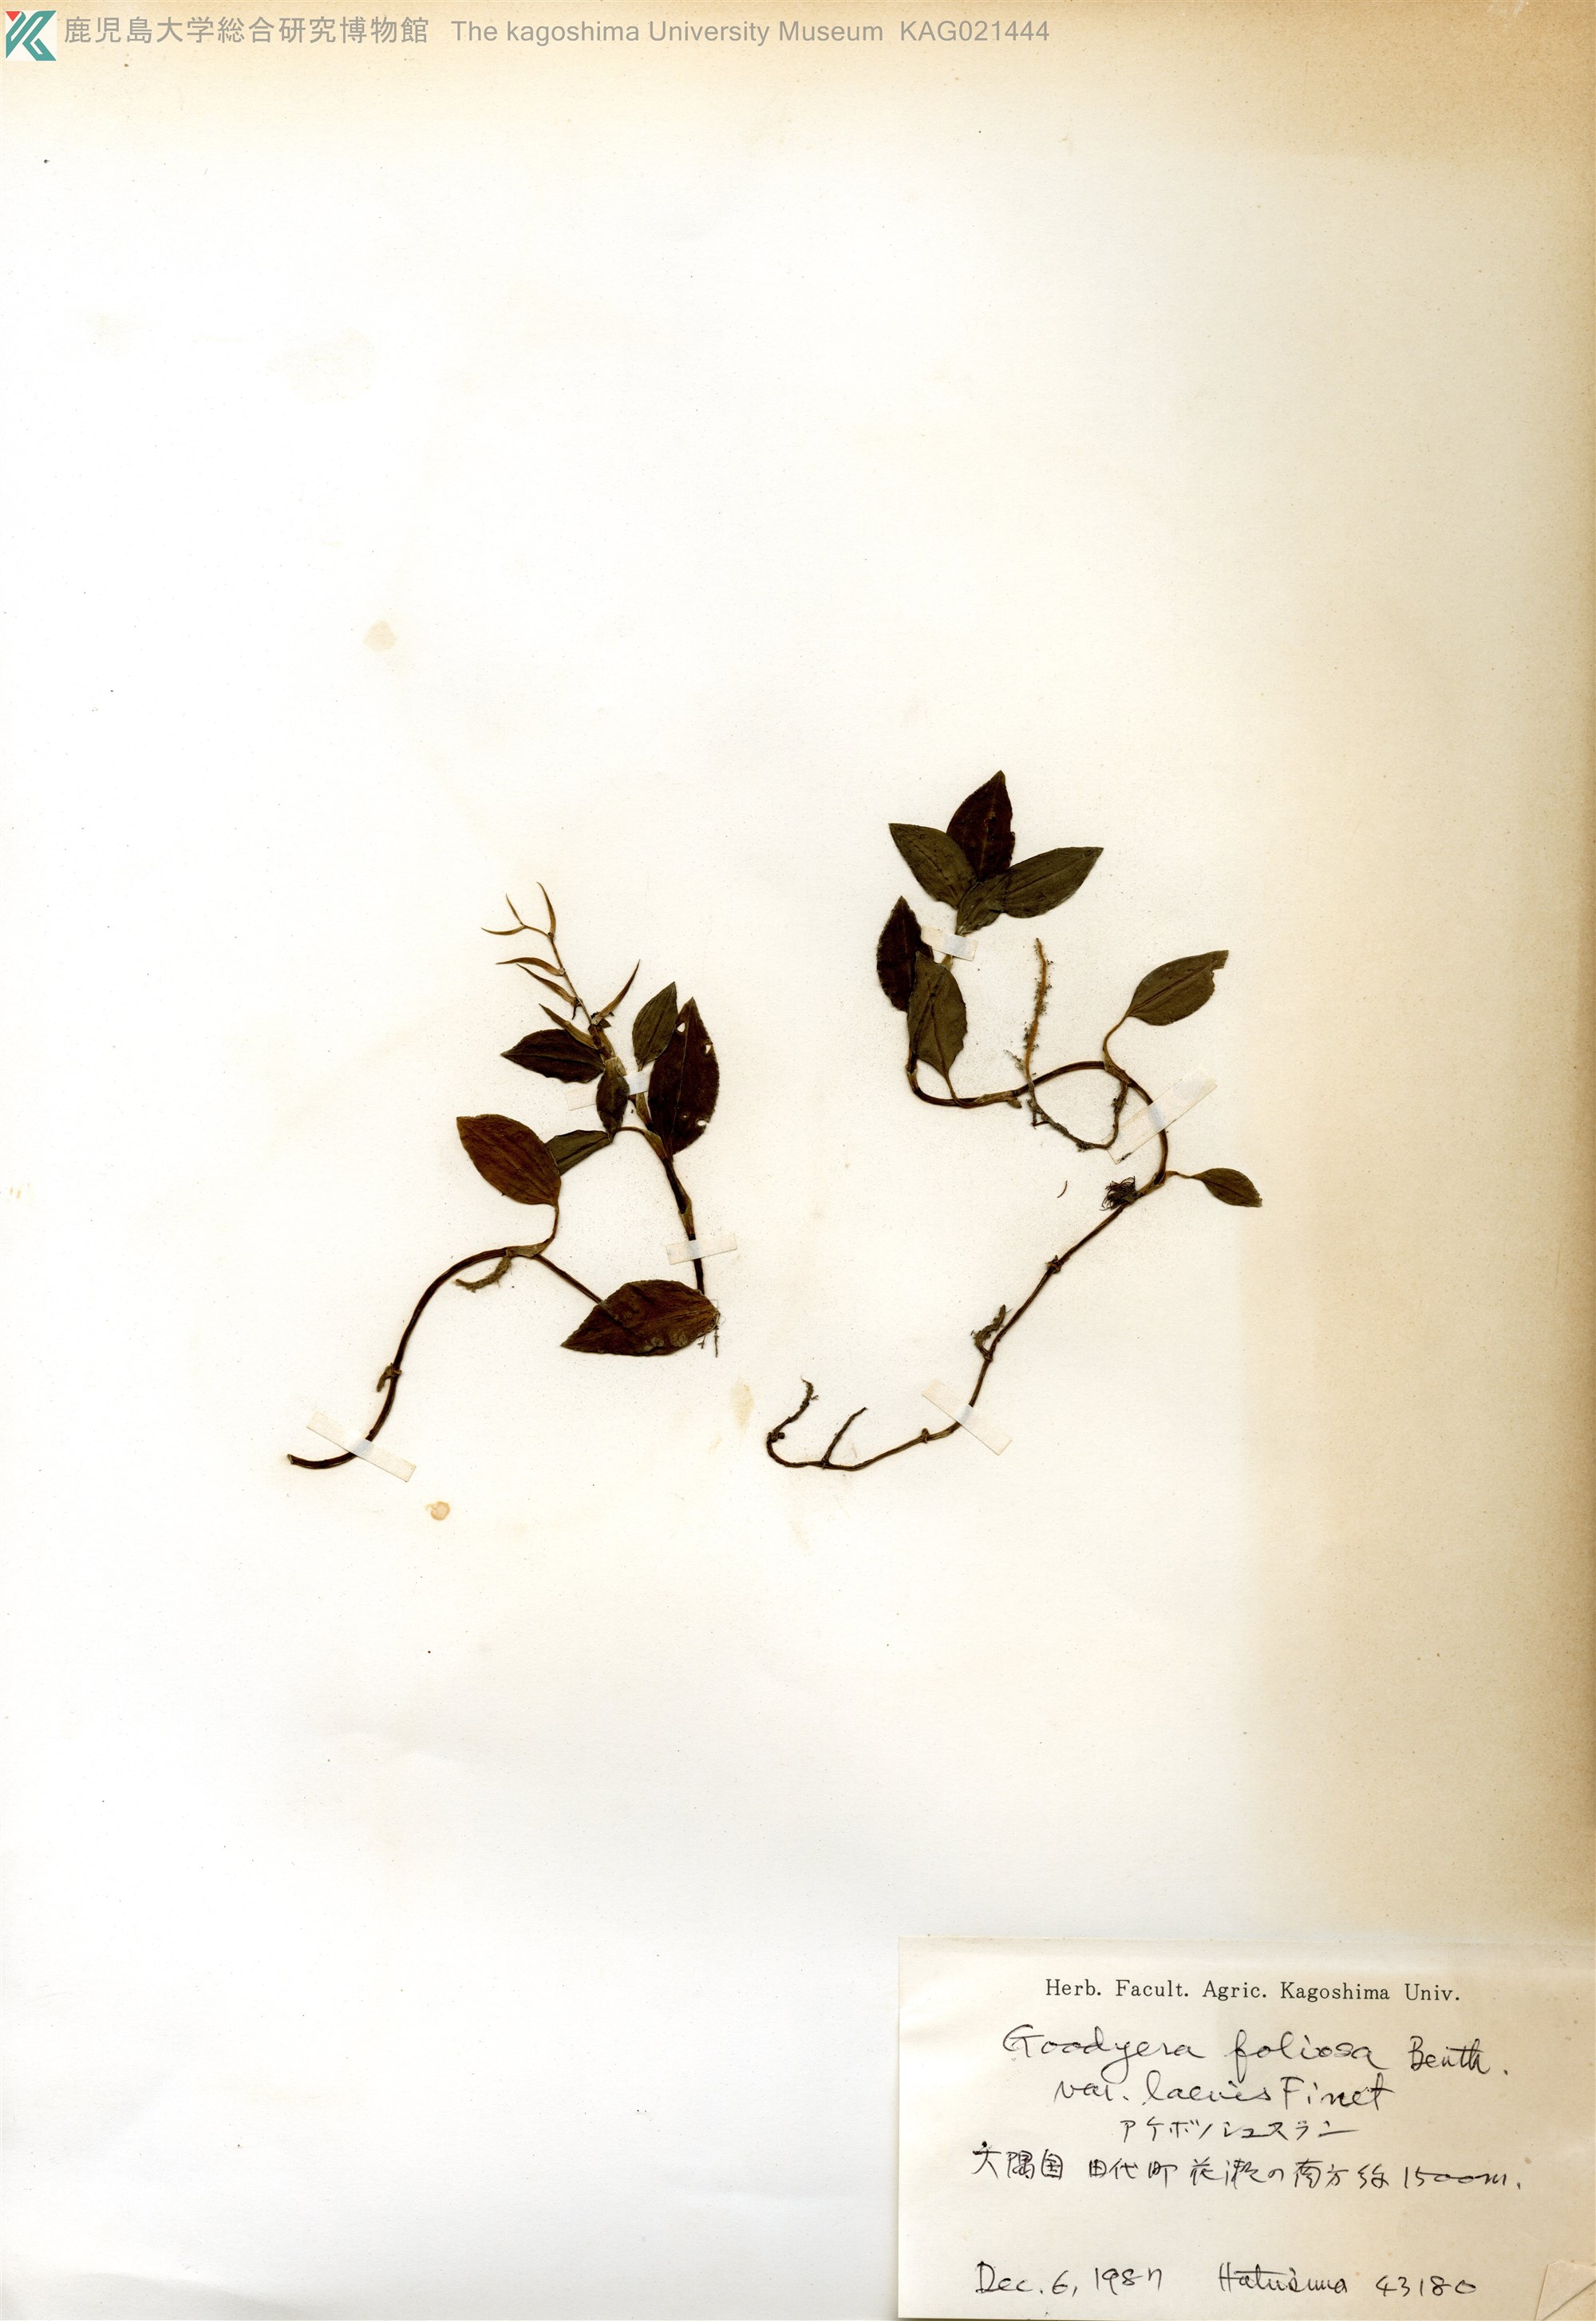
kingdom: Plantae
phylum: Tracheophyta
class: Liliopsida
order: Asparagales
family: Orchidaceae
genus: Goodyera
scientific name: Goodyera henryi
